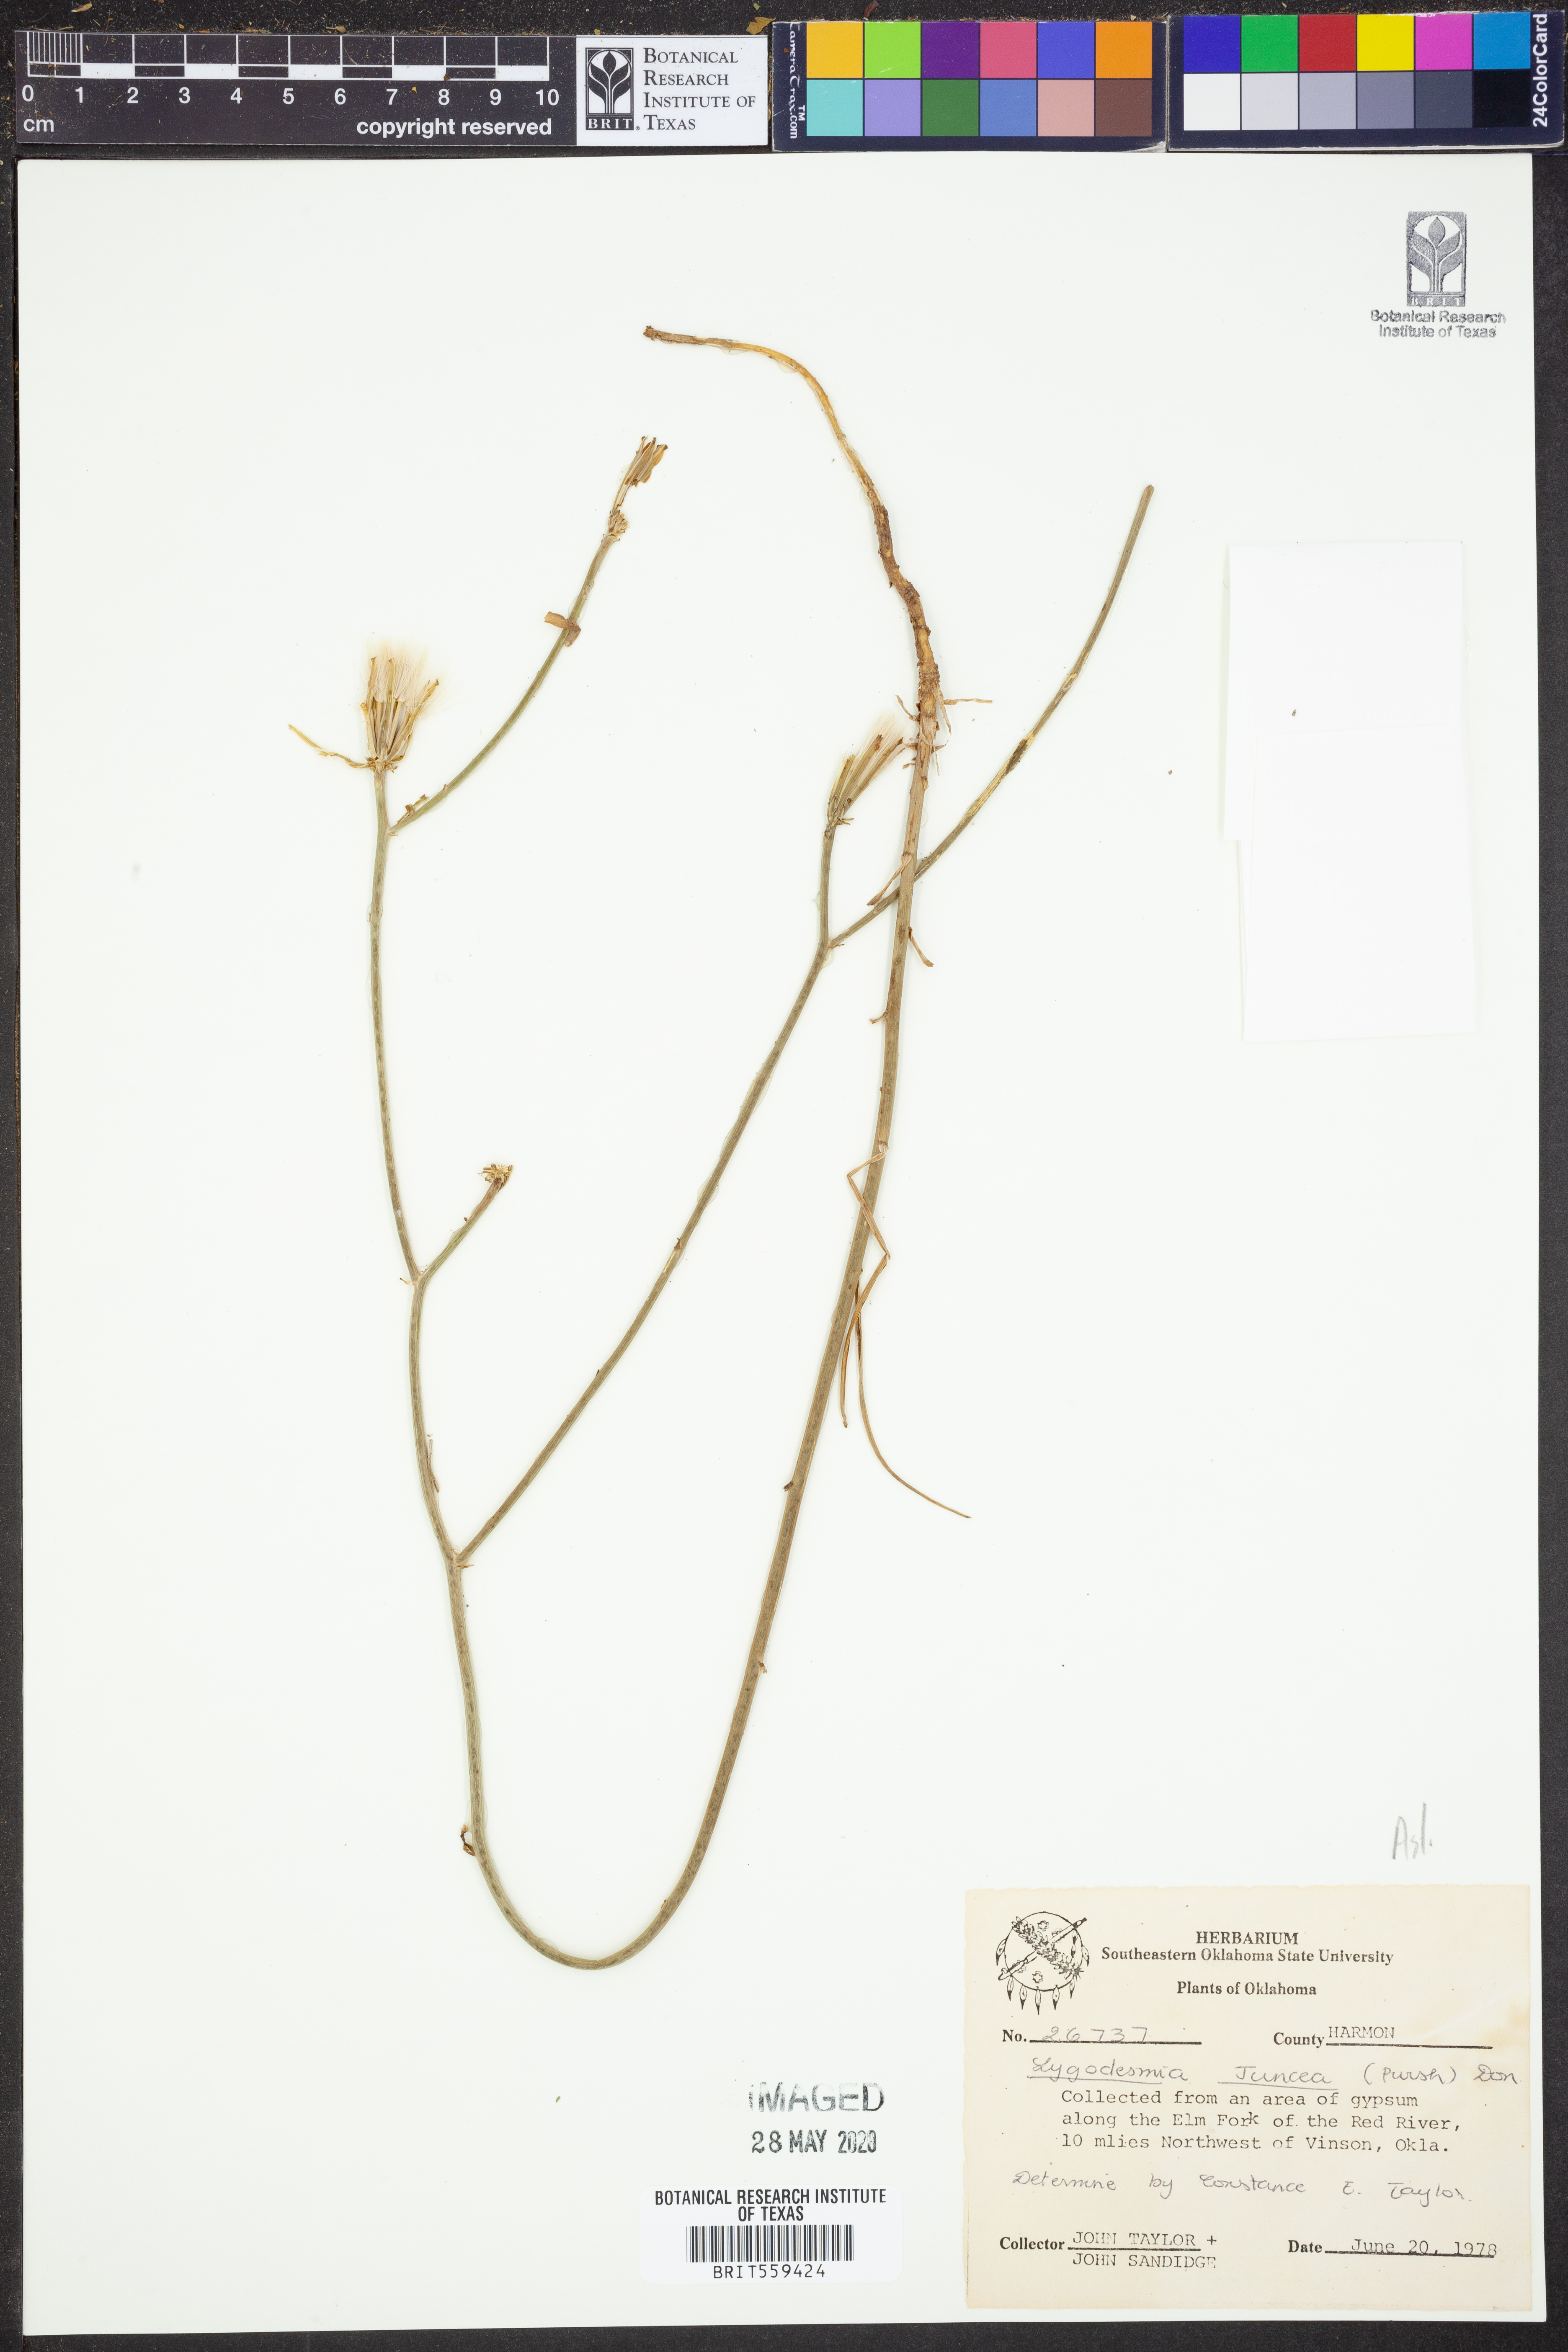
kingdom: Plantae
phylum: Tracheophyta
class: Magnoliopsida
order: Asterales
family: Asteraceae
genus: Lygodesmia
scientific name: Lygodesmia juncea
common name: Common skeletonweed
